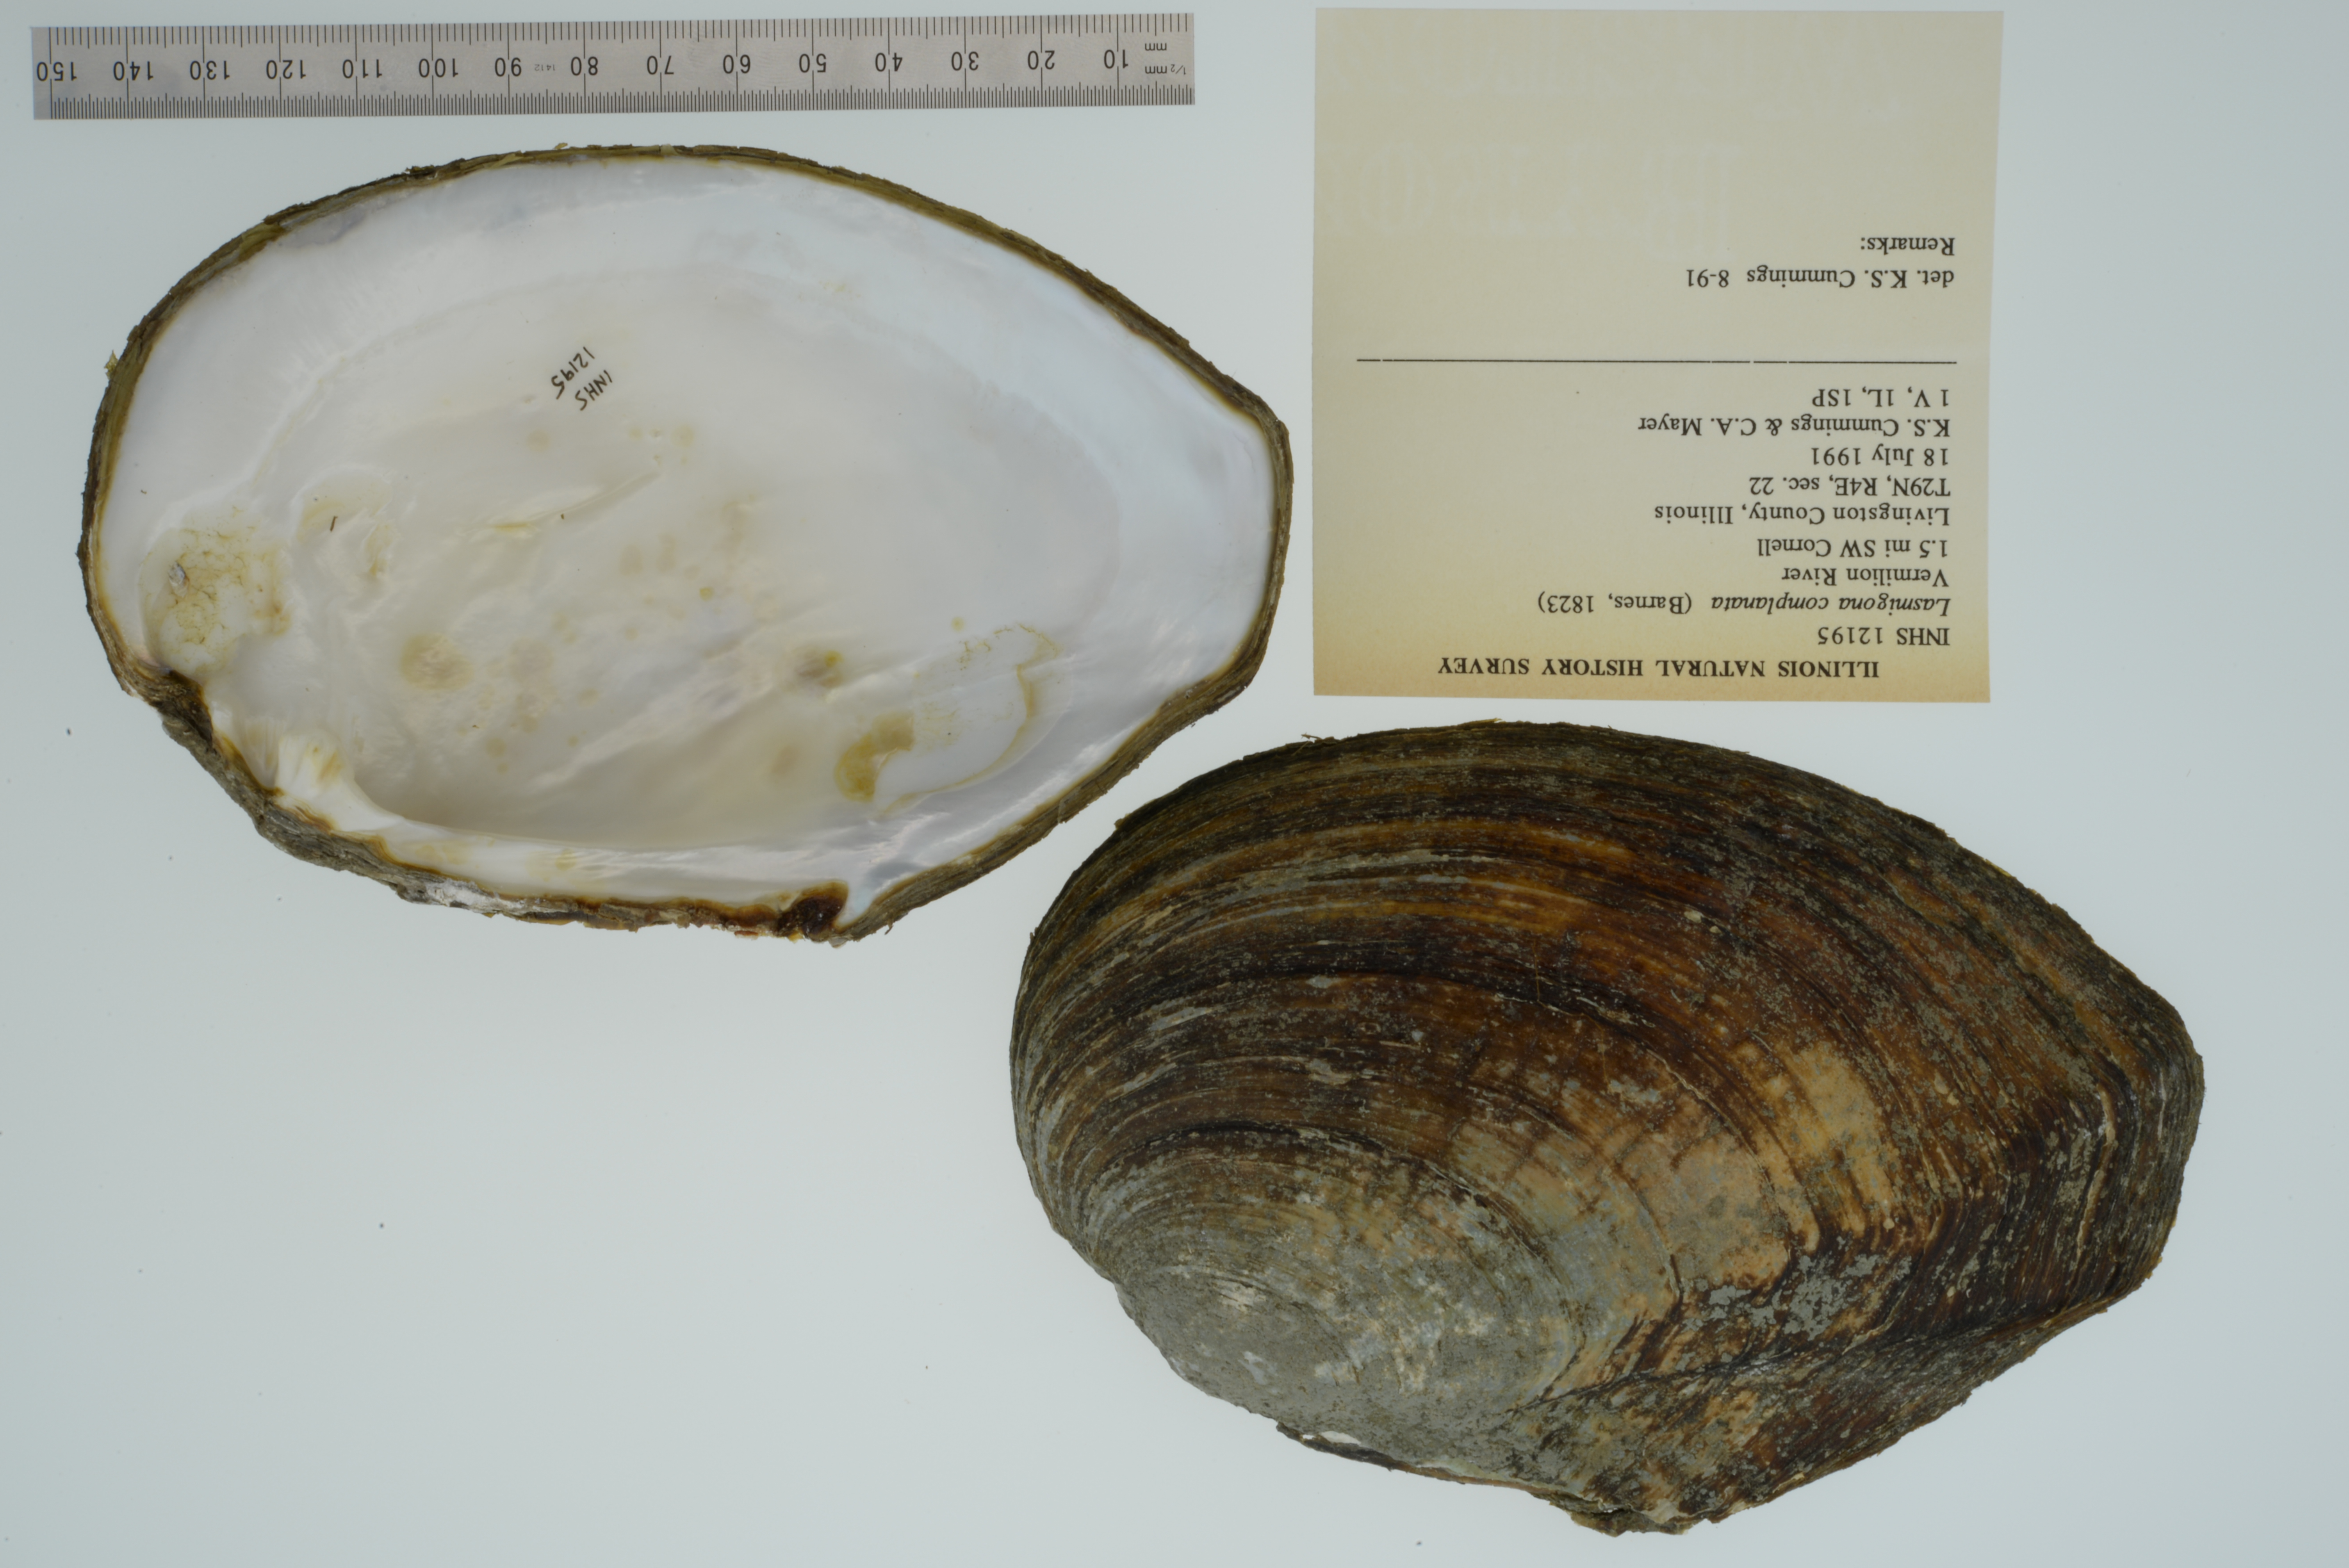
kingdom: Animalia
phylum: Mollusca
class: Bivalvia
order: Unionida
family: Unionidae
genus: Lasmigona
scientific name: Lasmigona complanata
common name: White heelsplitter
